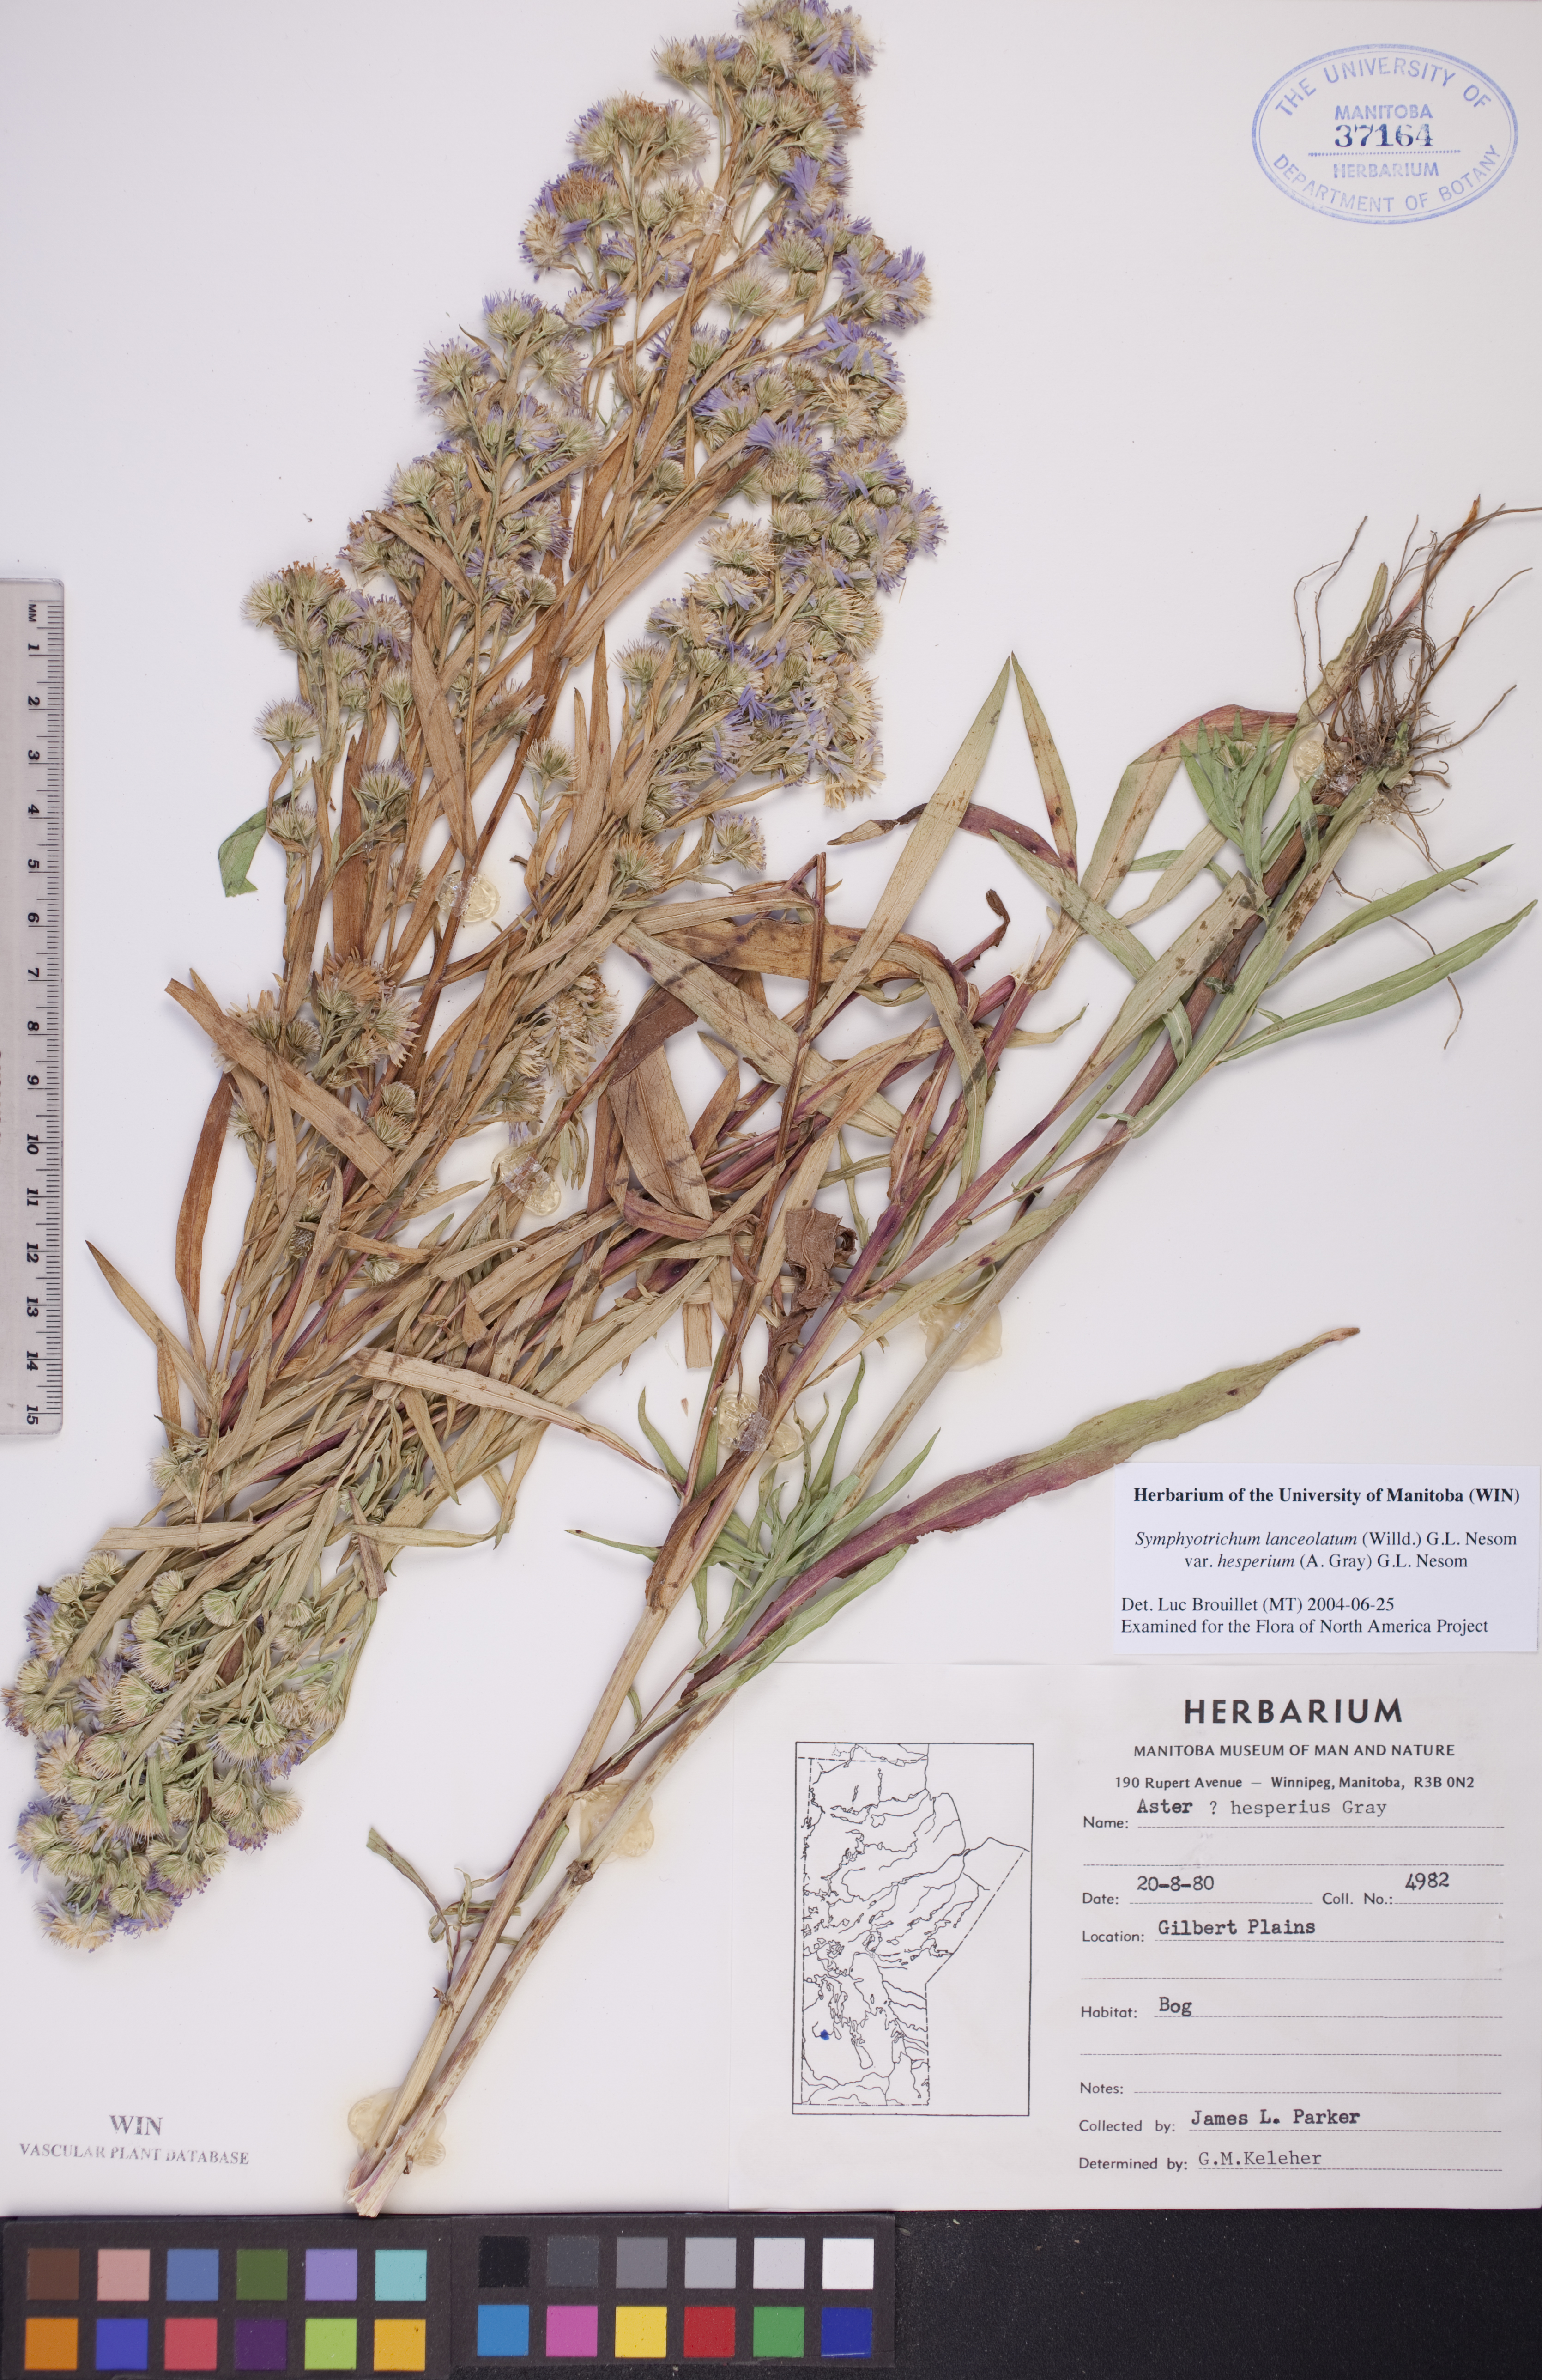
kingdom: Plantae
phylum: Tracheophyta
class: Magnoliopsida
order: Asterales
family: Asteraceae
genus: Symphyotrichum
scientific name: Symphyotrichum lanceolatum
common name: Panicled aster
